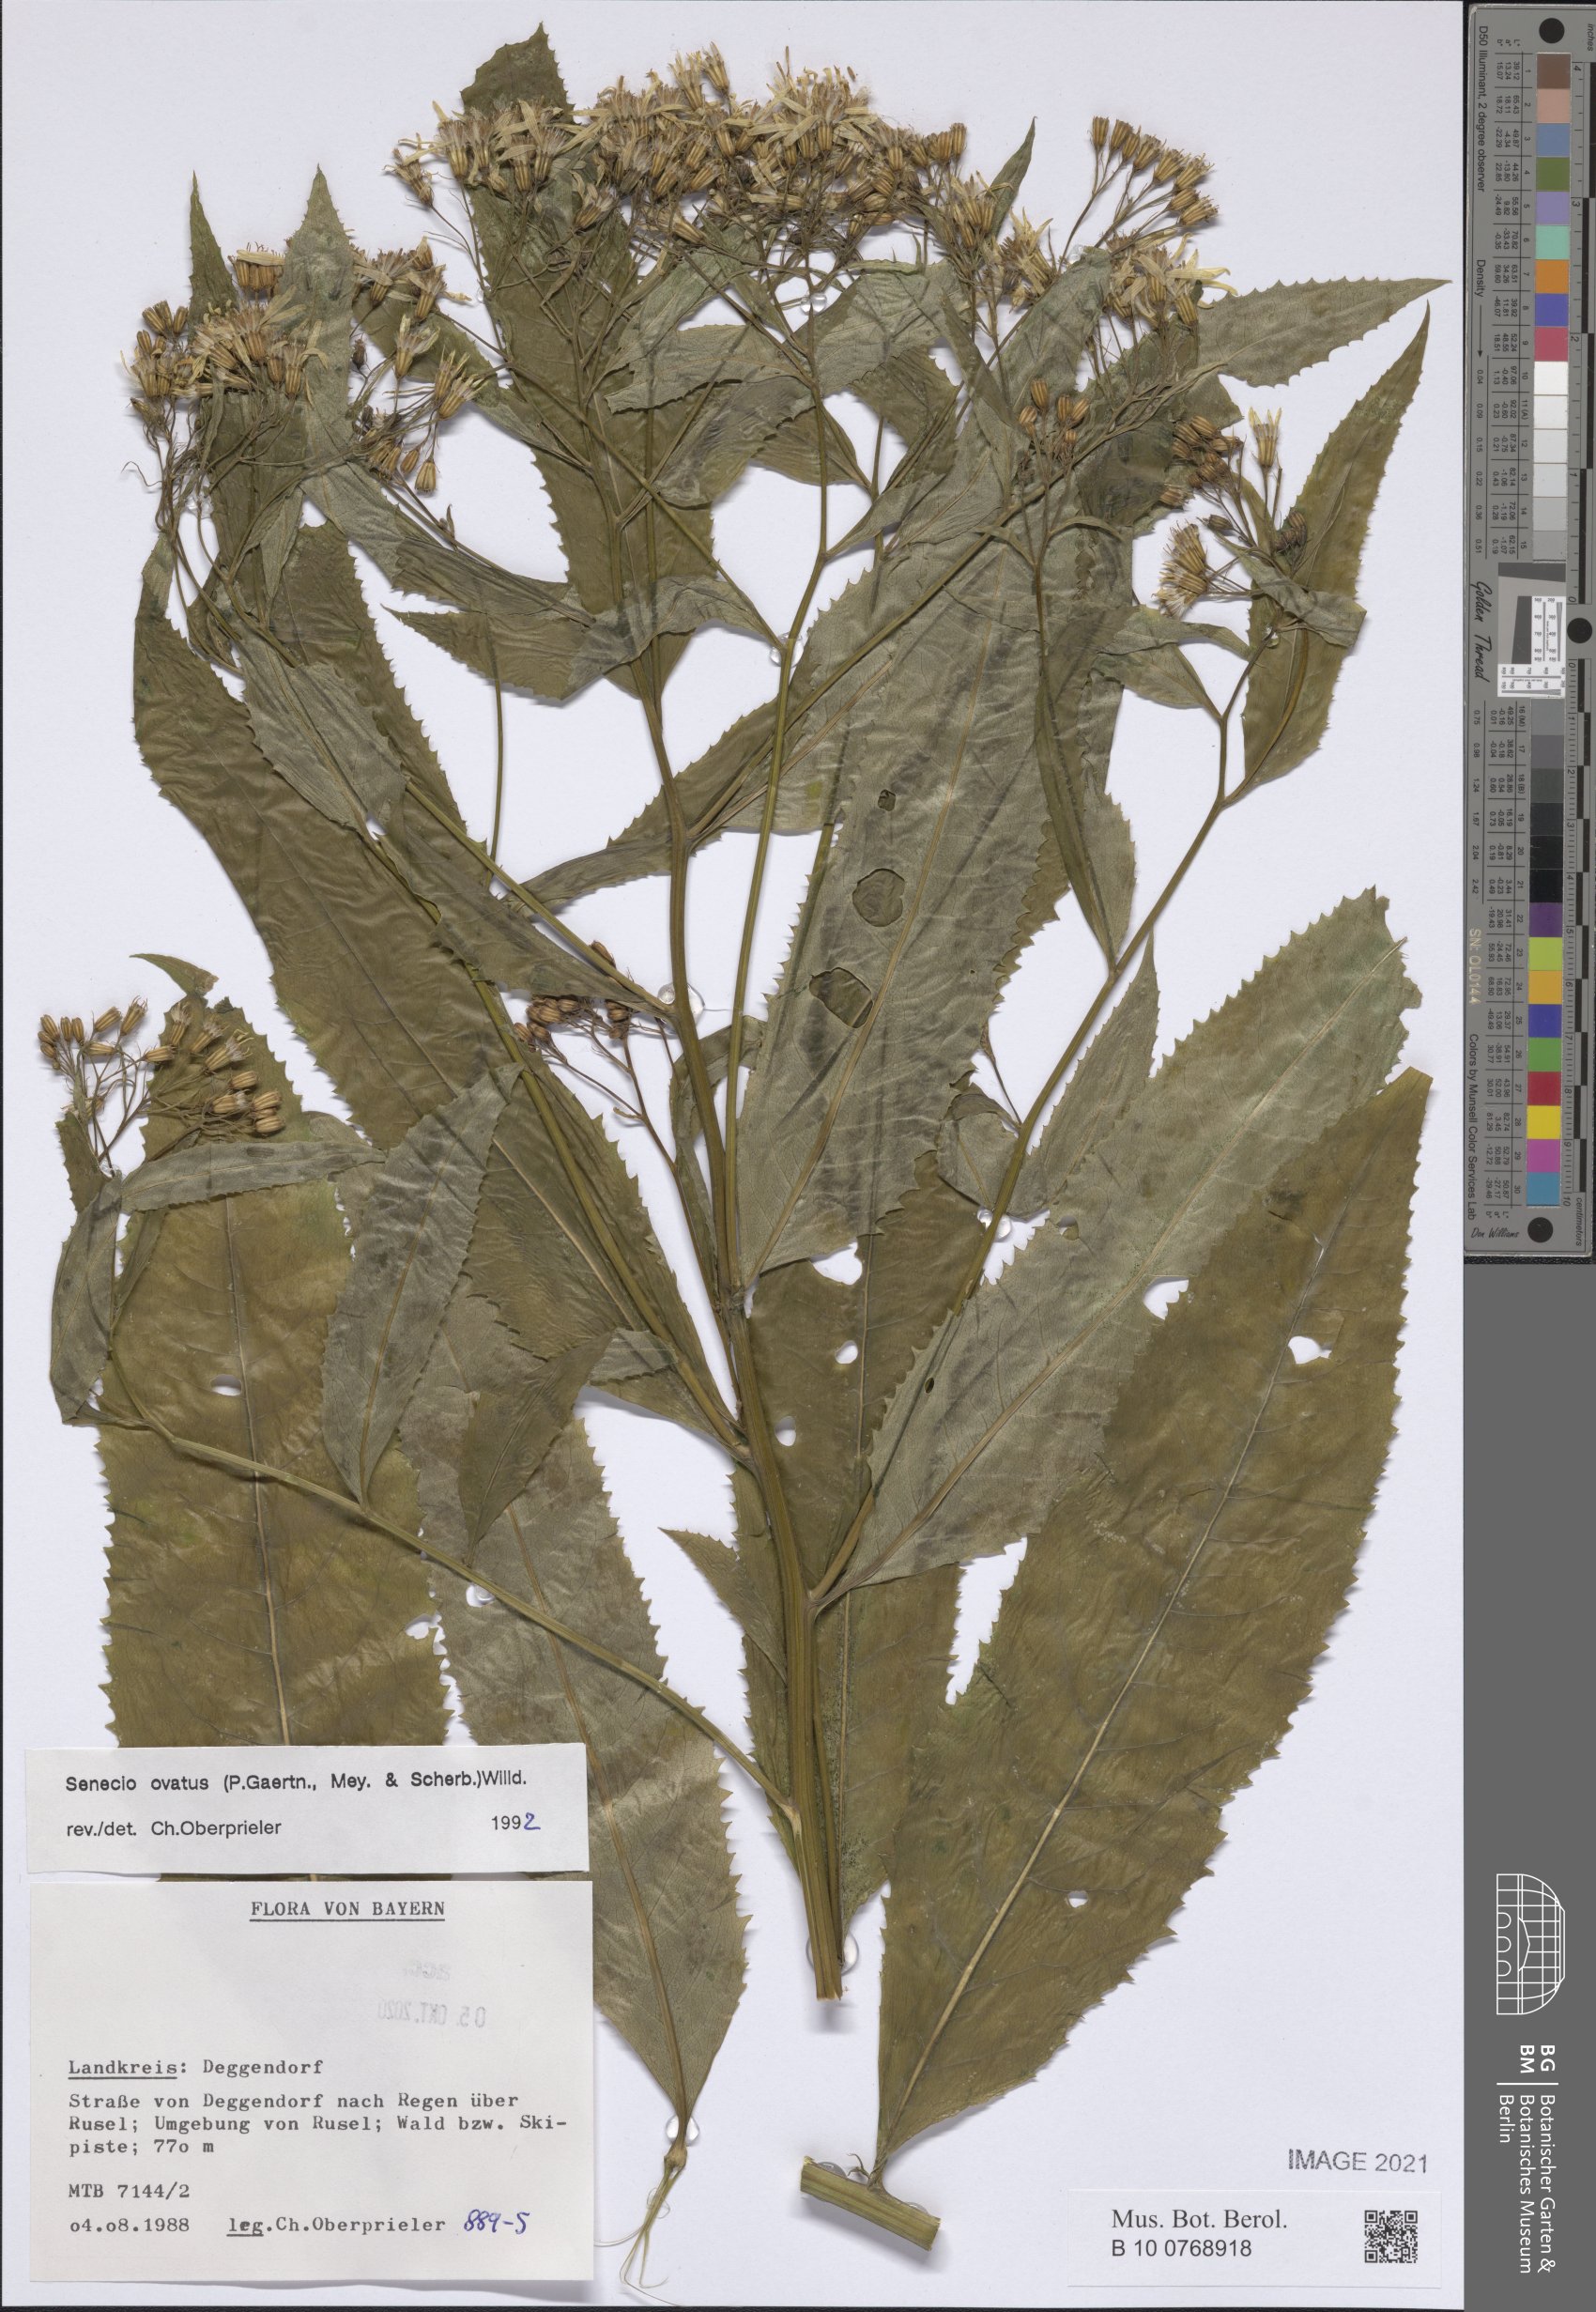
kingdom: Plantae
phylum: Tracheophyta
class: Magnoliopsida
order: Asterales
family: Asteraceae
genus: Senecio
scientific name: Senecio ovatus
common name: Wood ragwort
